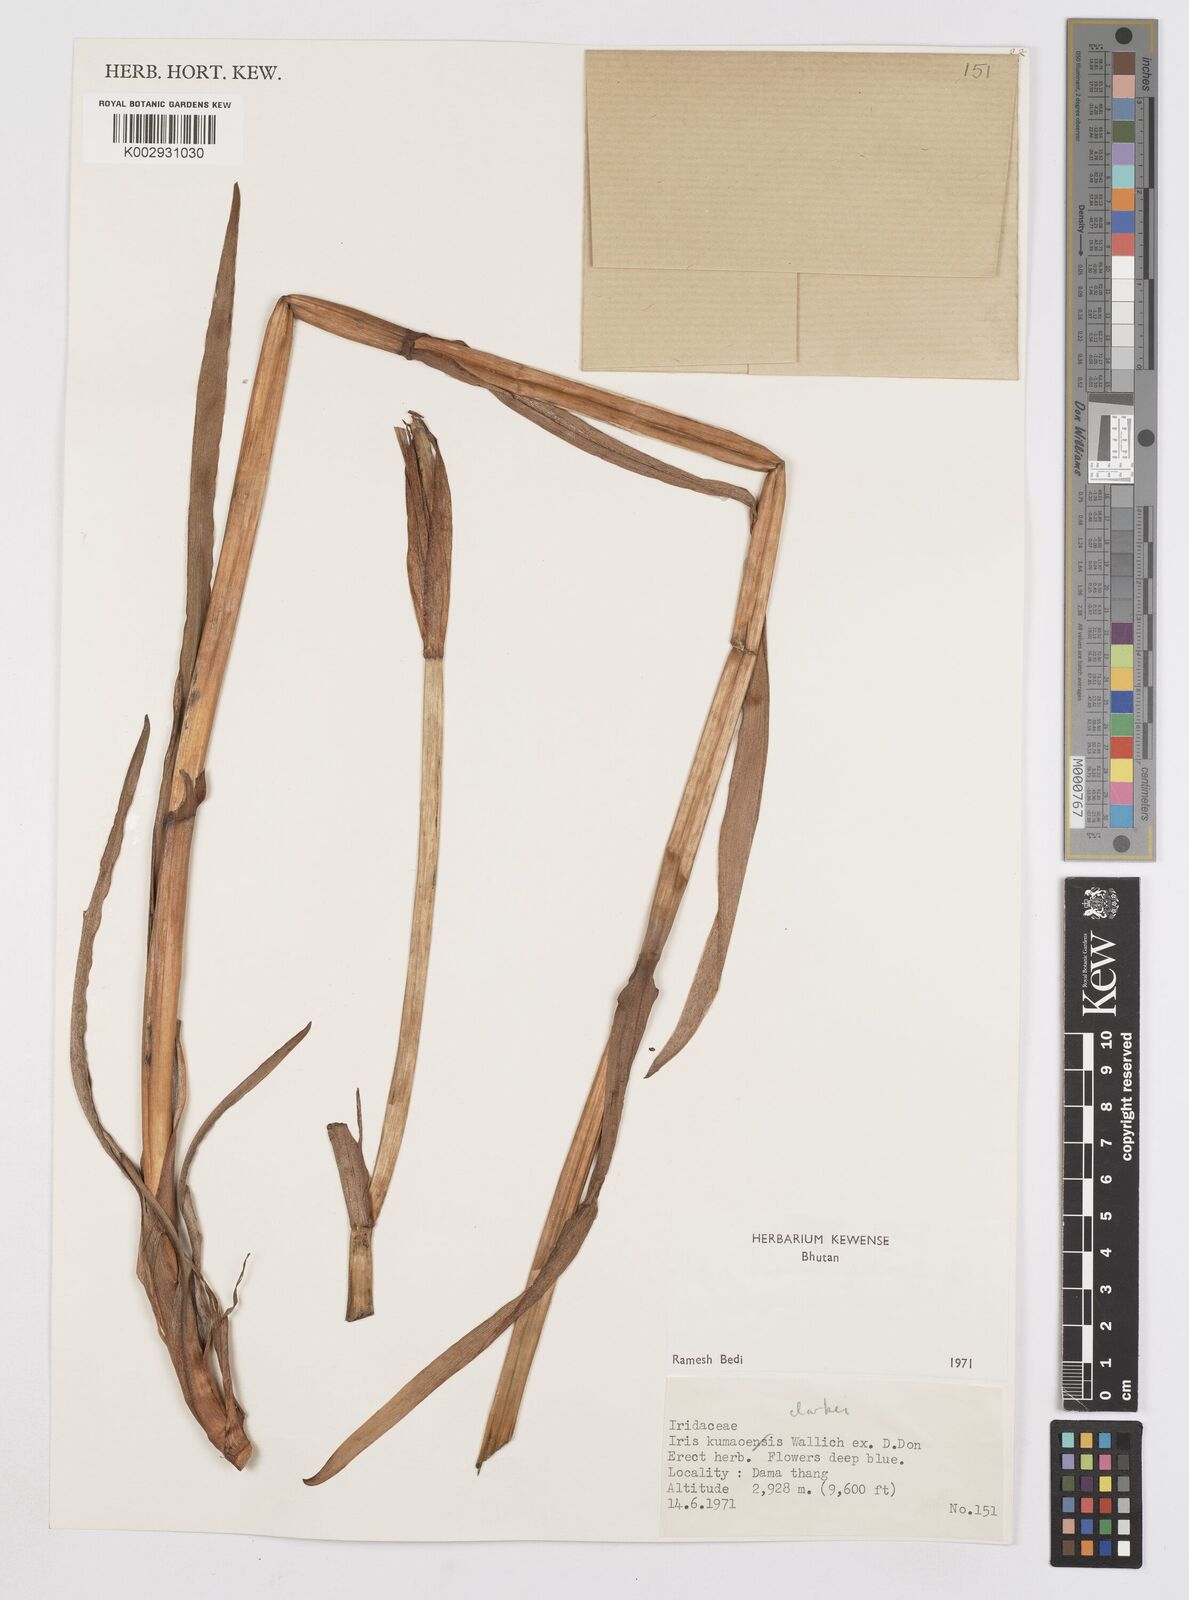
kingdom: Plantae
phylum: Tracheophyta
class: Liliopsida
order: Asparagales
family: Iridaceae
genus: Iris
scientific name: Iris clarkei
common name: Tibet iris
